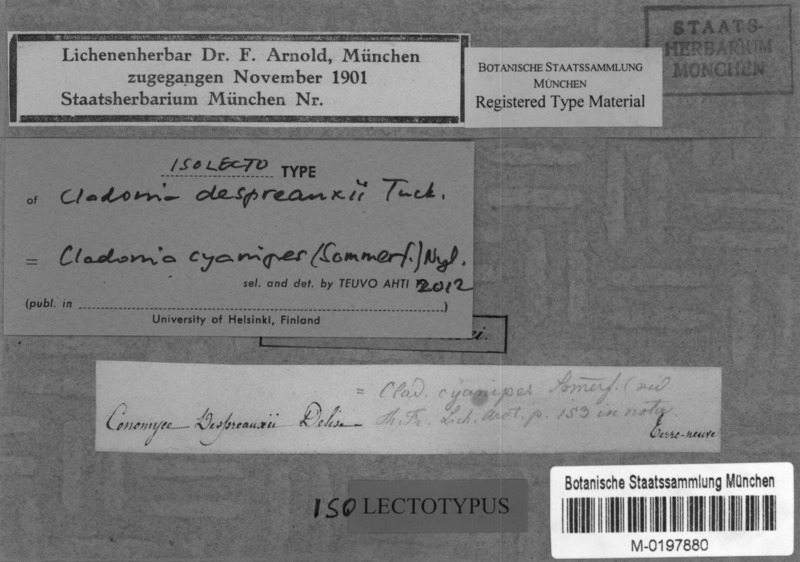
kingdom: Fungi
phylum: Ascomycota
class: Lecanoromycetes
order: Lecanorales
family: Cladoniaceae
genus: Cladonia
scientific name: Cladonia cyanipes
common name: Blue-footed pixie lichen
